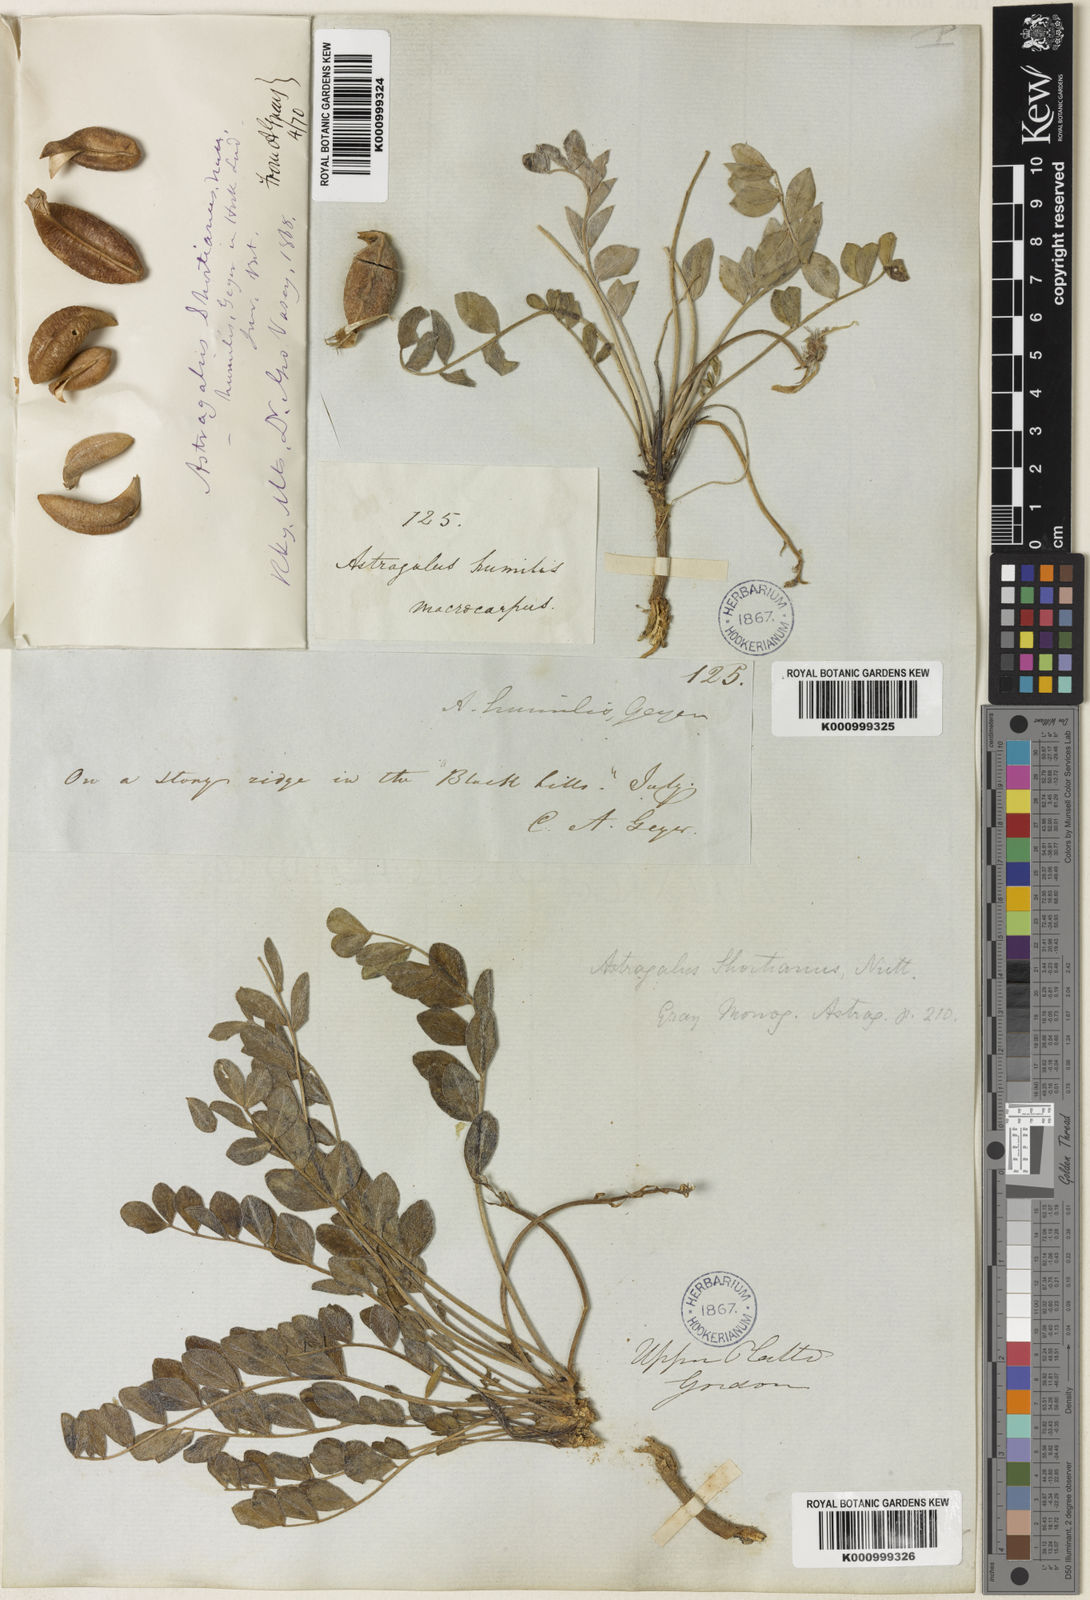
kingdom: Plantae
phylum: Tracheophyta
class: Magnoliopsida
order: Fabales
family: Fabaceae
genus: Astragalus
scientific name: Astragalus shortianus
